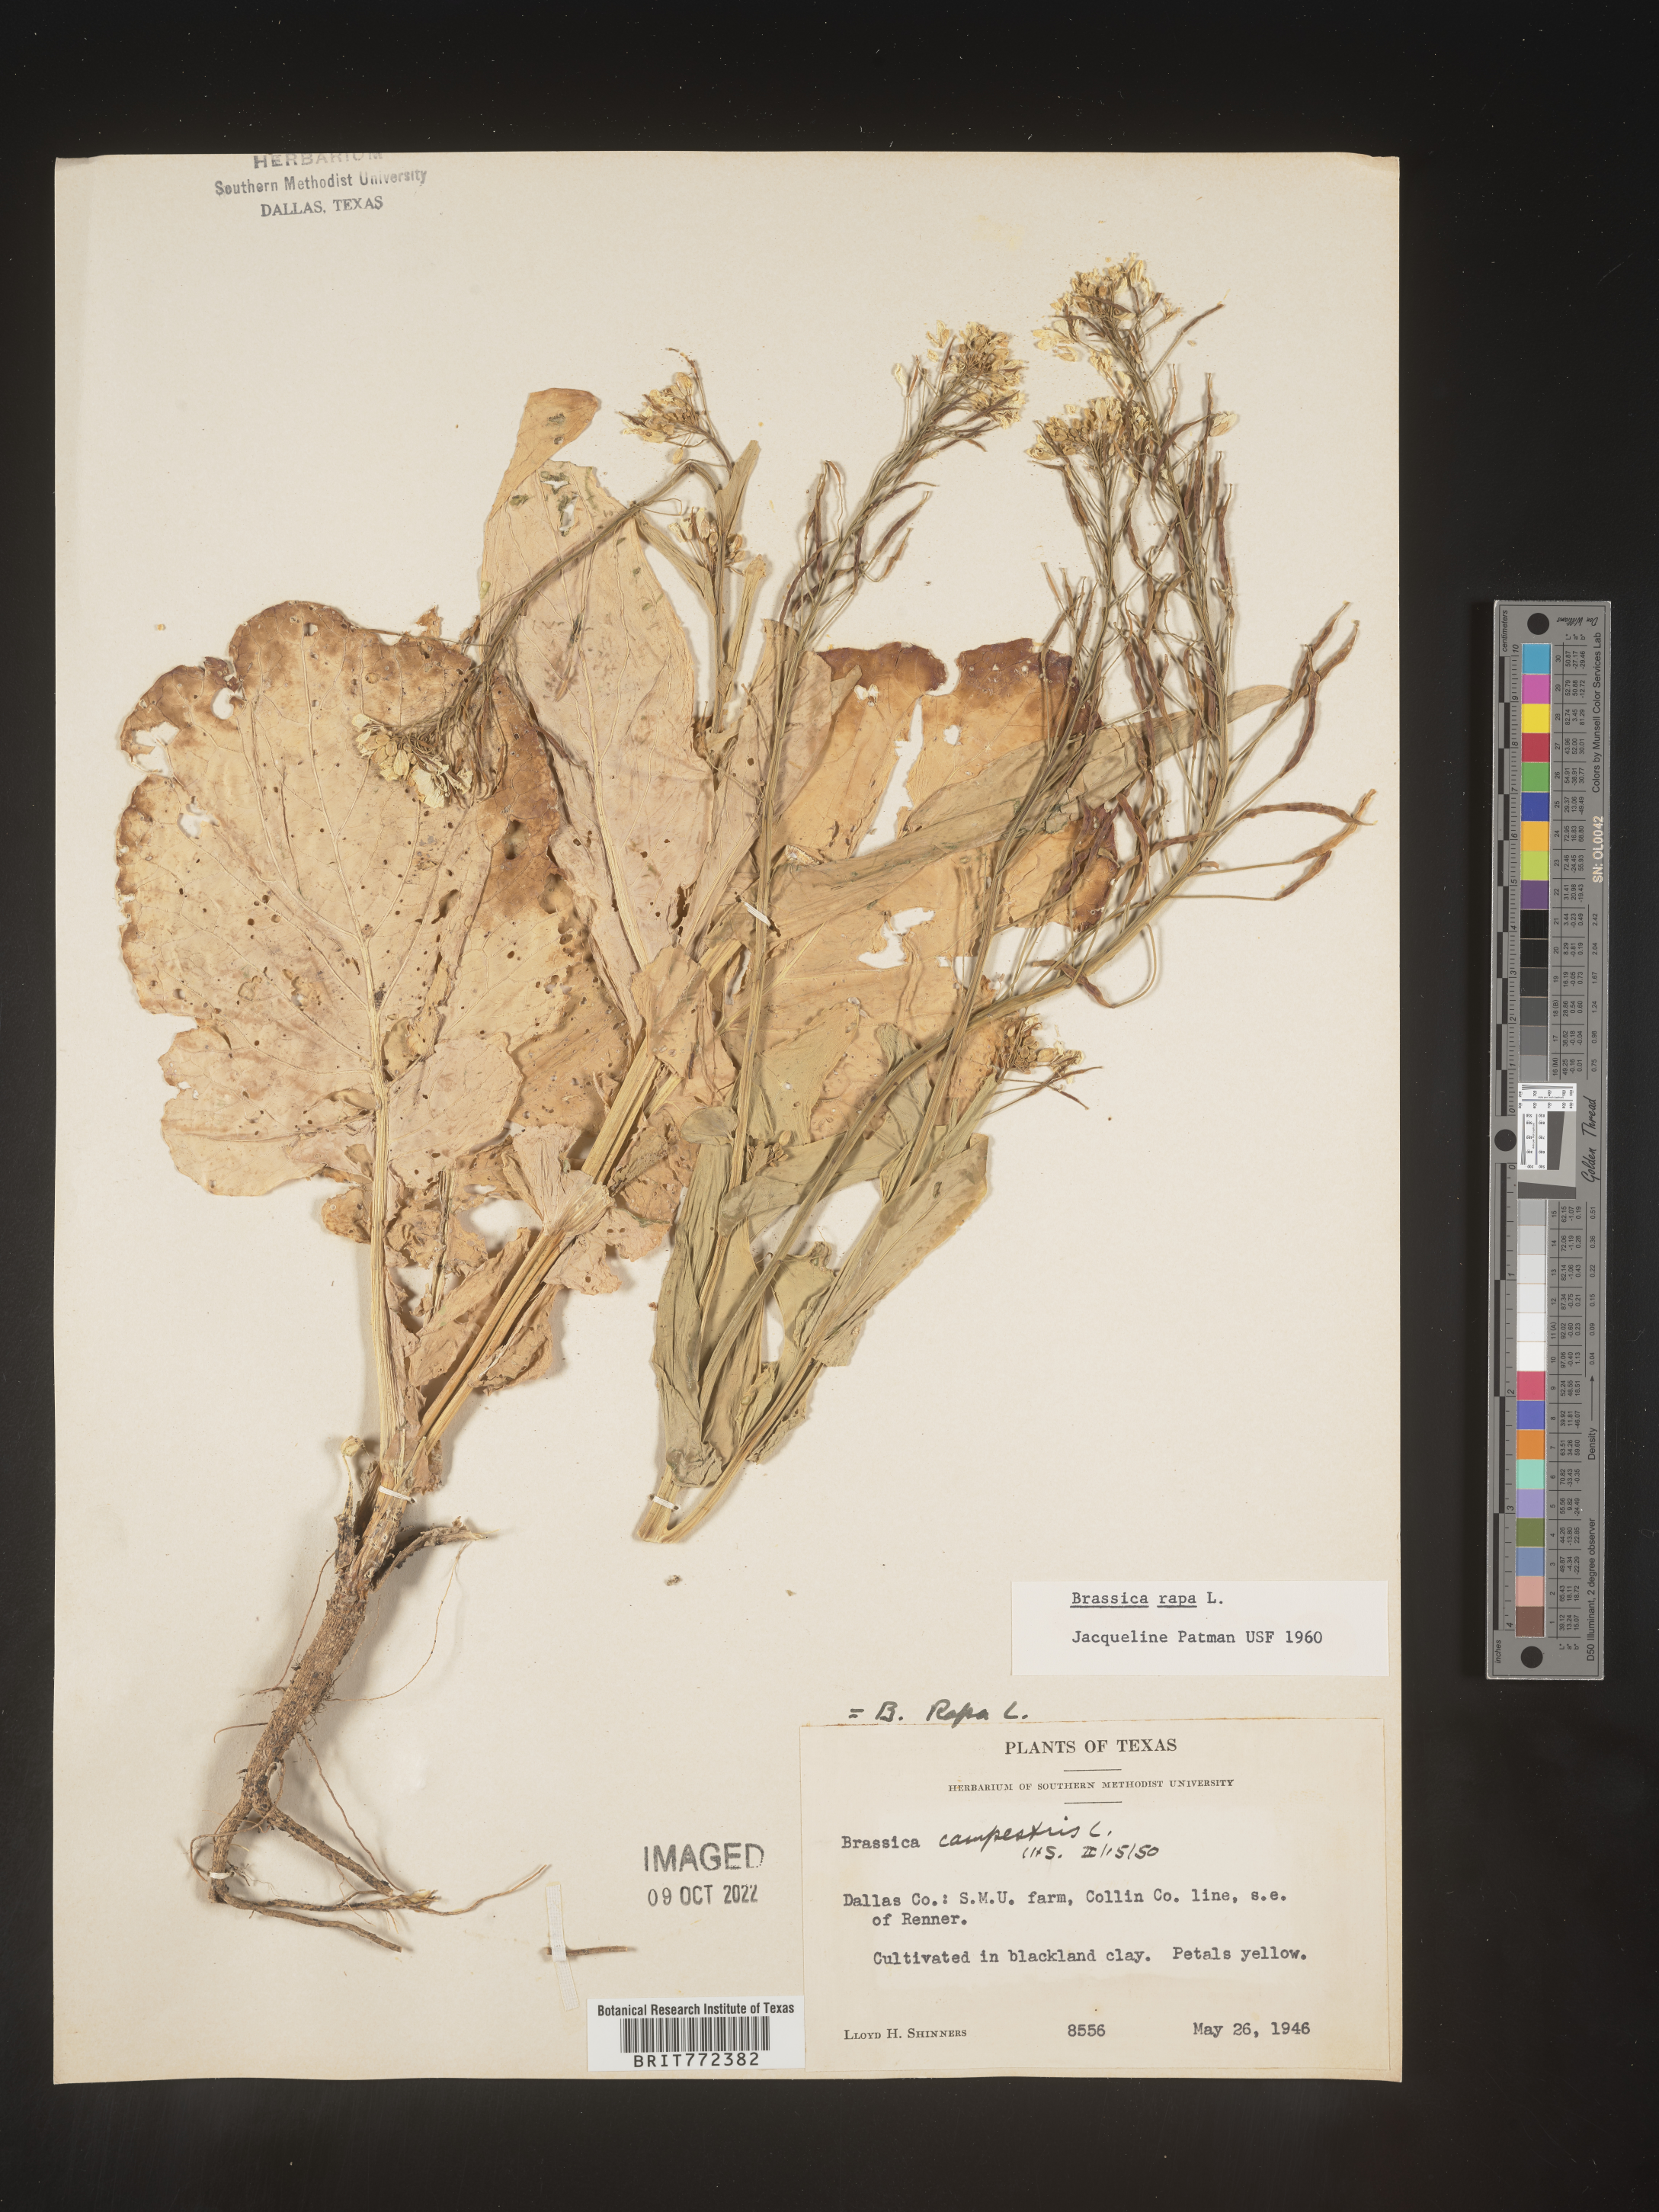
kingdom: Plantae
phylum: Tracheophyta
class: Magnoliopsida
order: Brassicales
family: Brassicaceae
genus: Brassica
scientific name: Brassica
